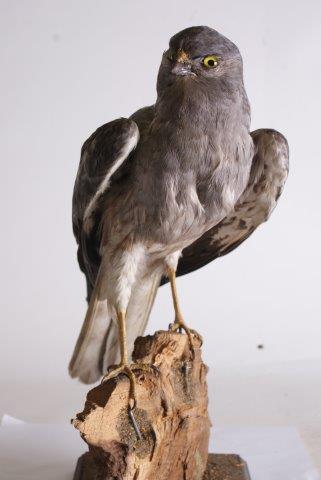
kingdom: Animalia
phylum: Chordata
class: Aves
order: Accipitriformes
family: Accipitridae
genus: Circus
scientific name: Circus pygargus
